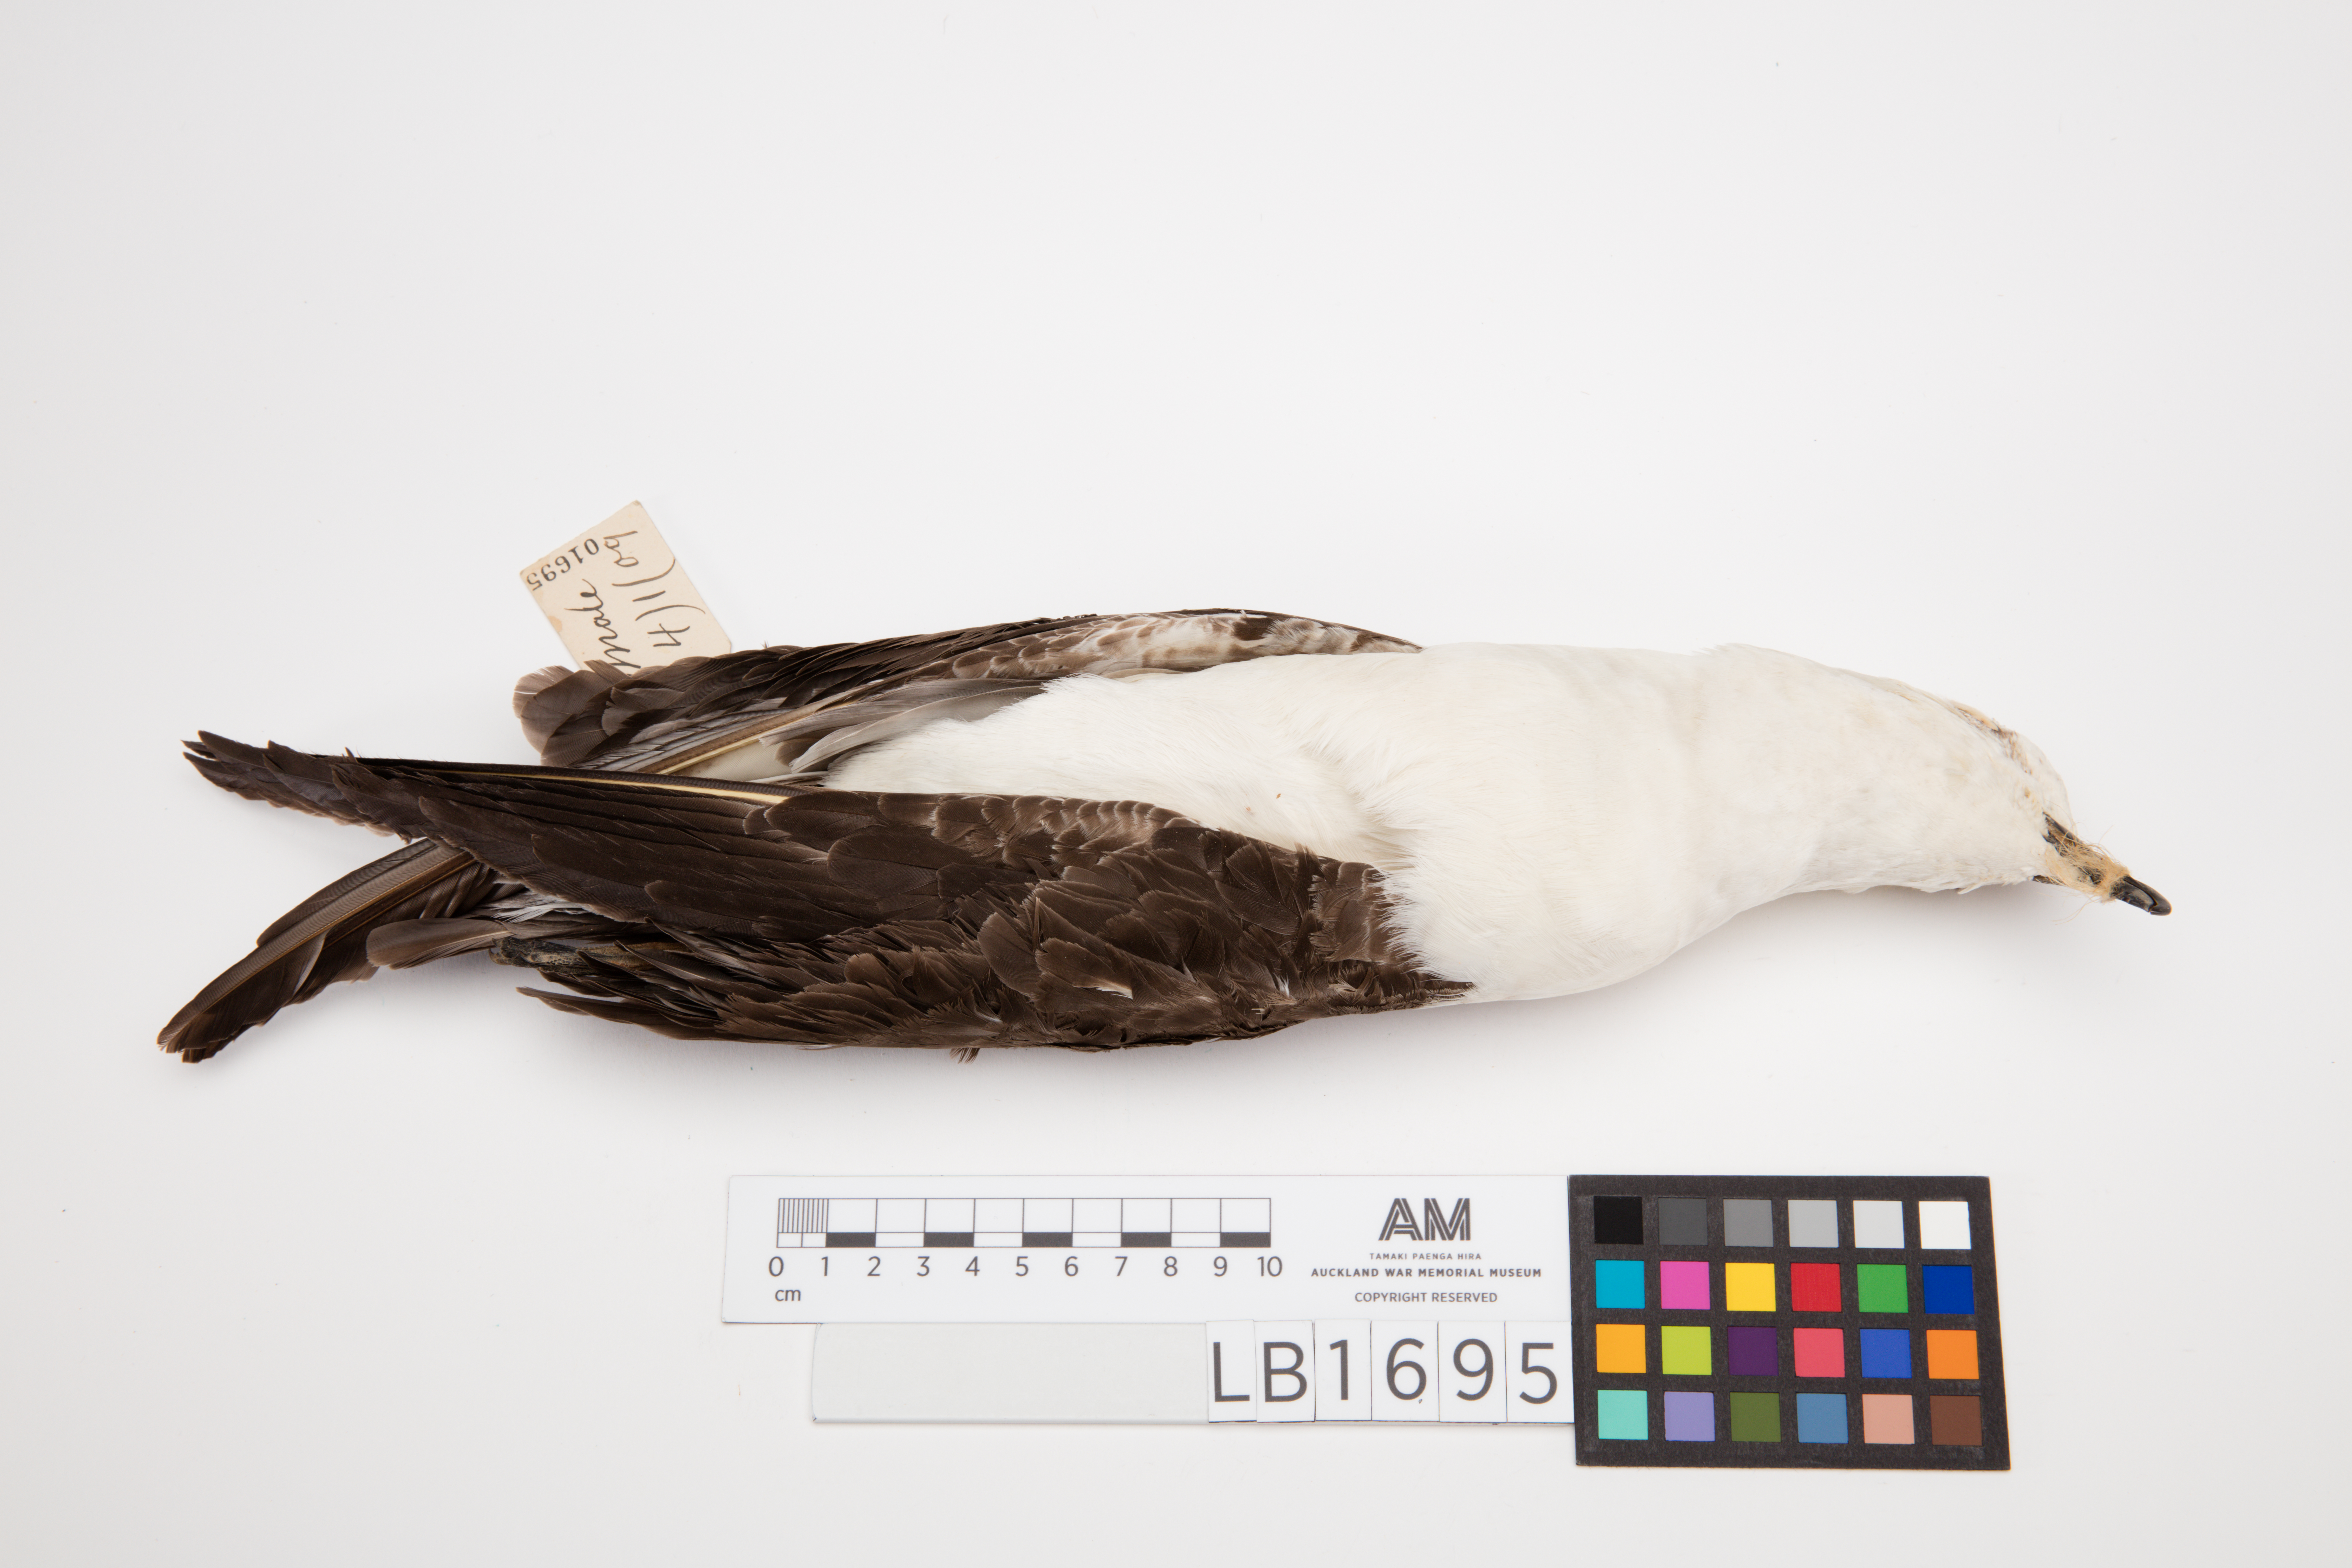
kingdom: Animalia
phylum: Chordata
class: Aves
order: Procellariiformes
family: Procellariidae
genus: Pterodroma
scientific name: Pterodroma neglecta
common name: Kermadec petrel
